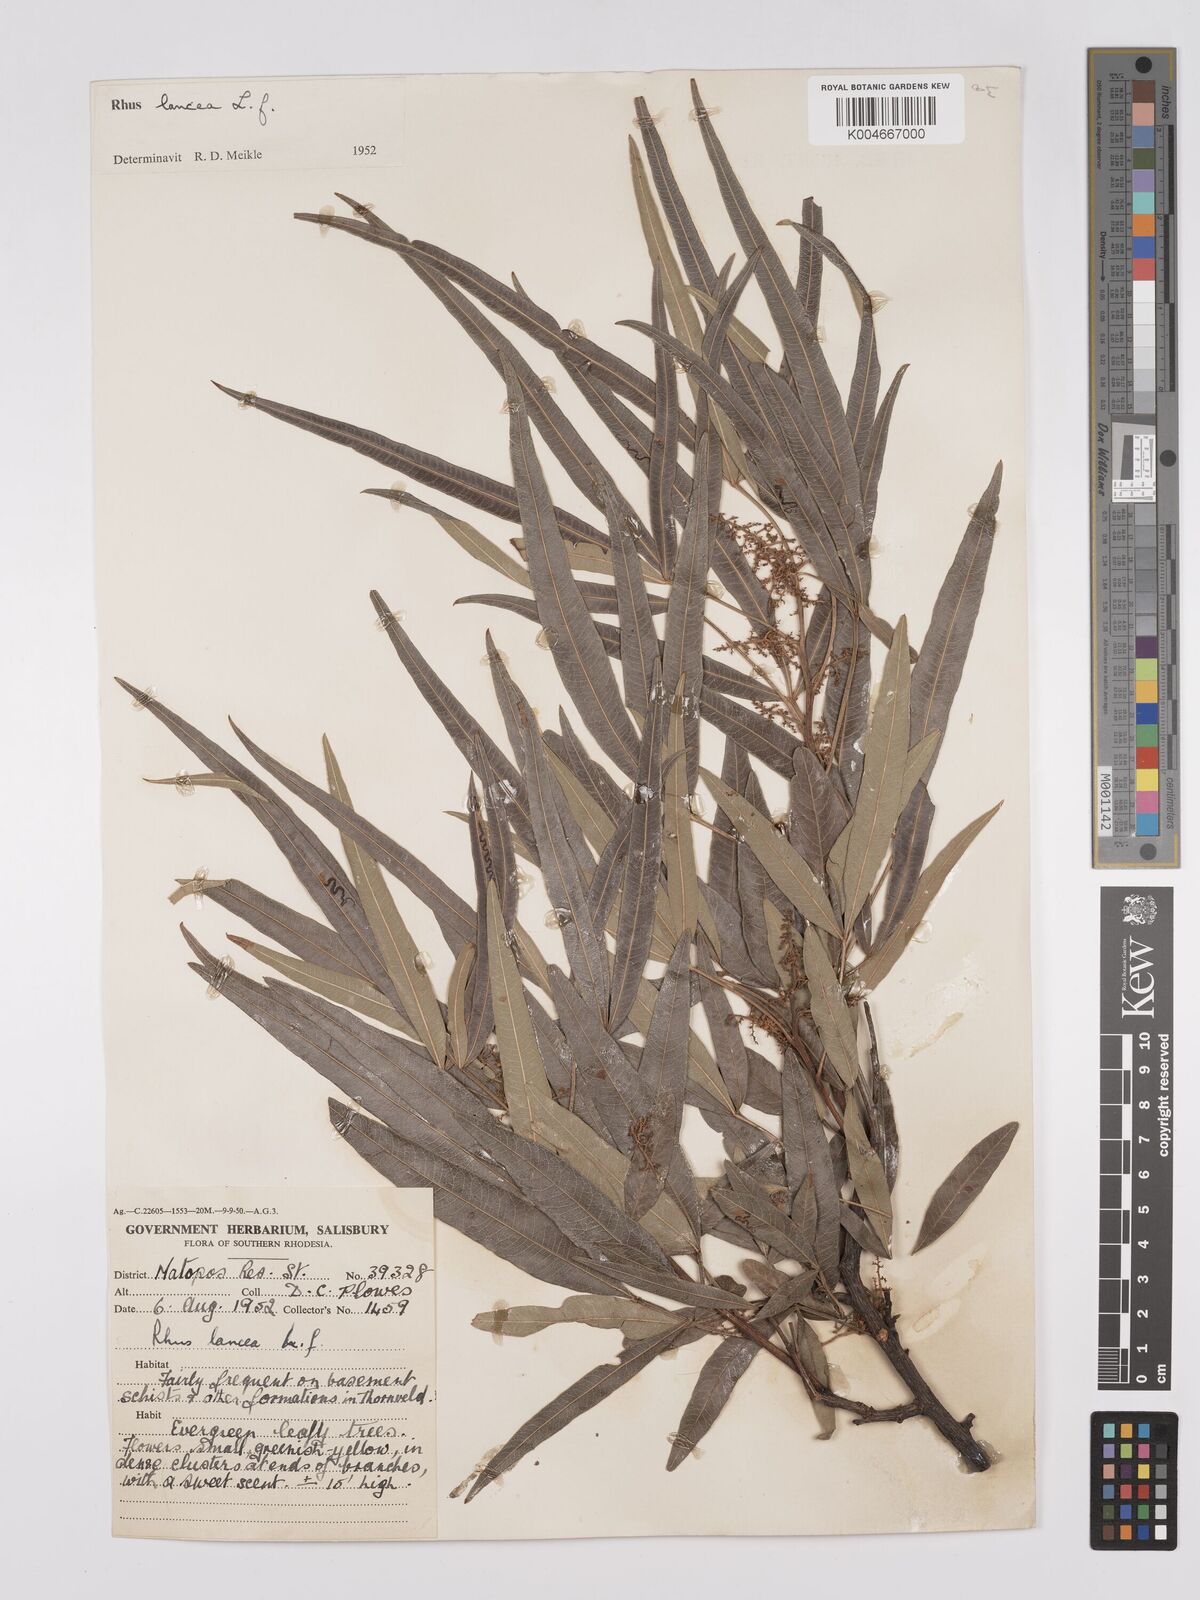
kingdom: Plantae
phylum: Tracheophyta
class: Magnoliopsida
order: Sapindales
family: Anacardiaceae
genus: Searsia
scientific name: Searsia lancea
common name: Cashew
